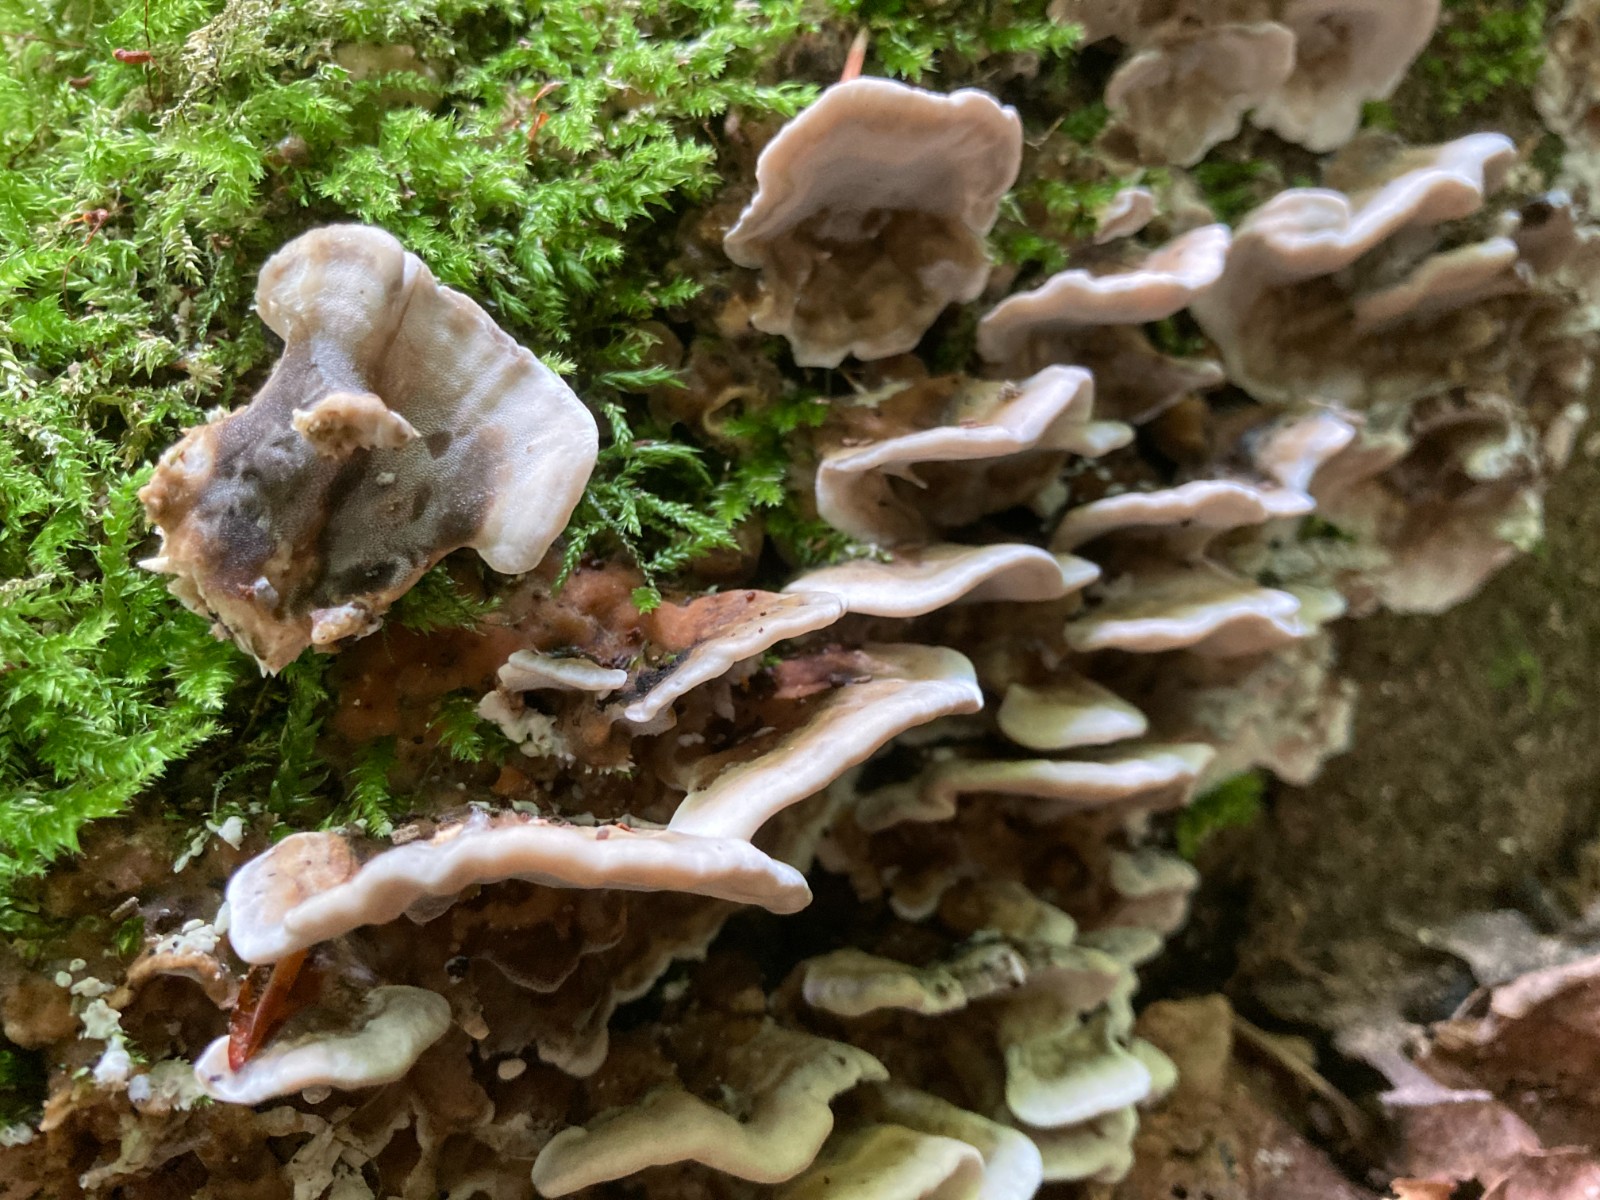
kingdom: Fungi
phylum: Basidiomycota
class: Agaricomycetes
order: Polyporales
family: Phanerochaetaceae
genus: Bjerkandera
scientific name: Bjerkandera adusta
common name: sveden sodporesvamp
